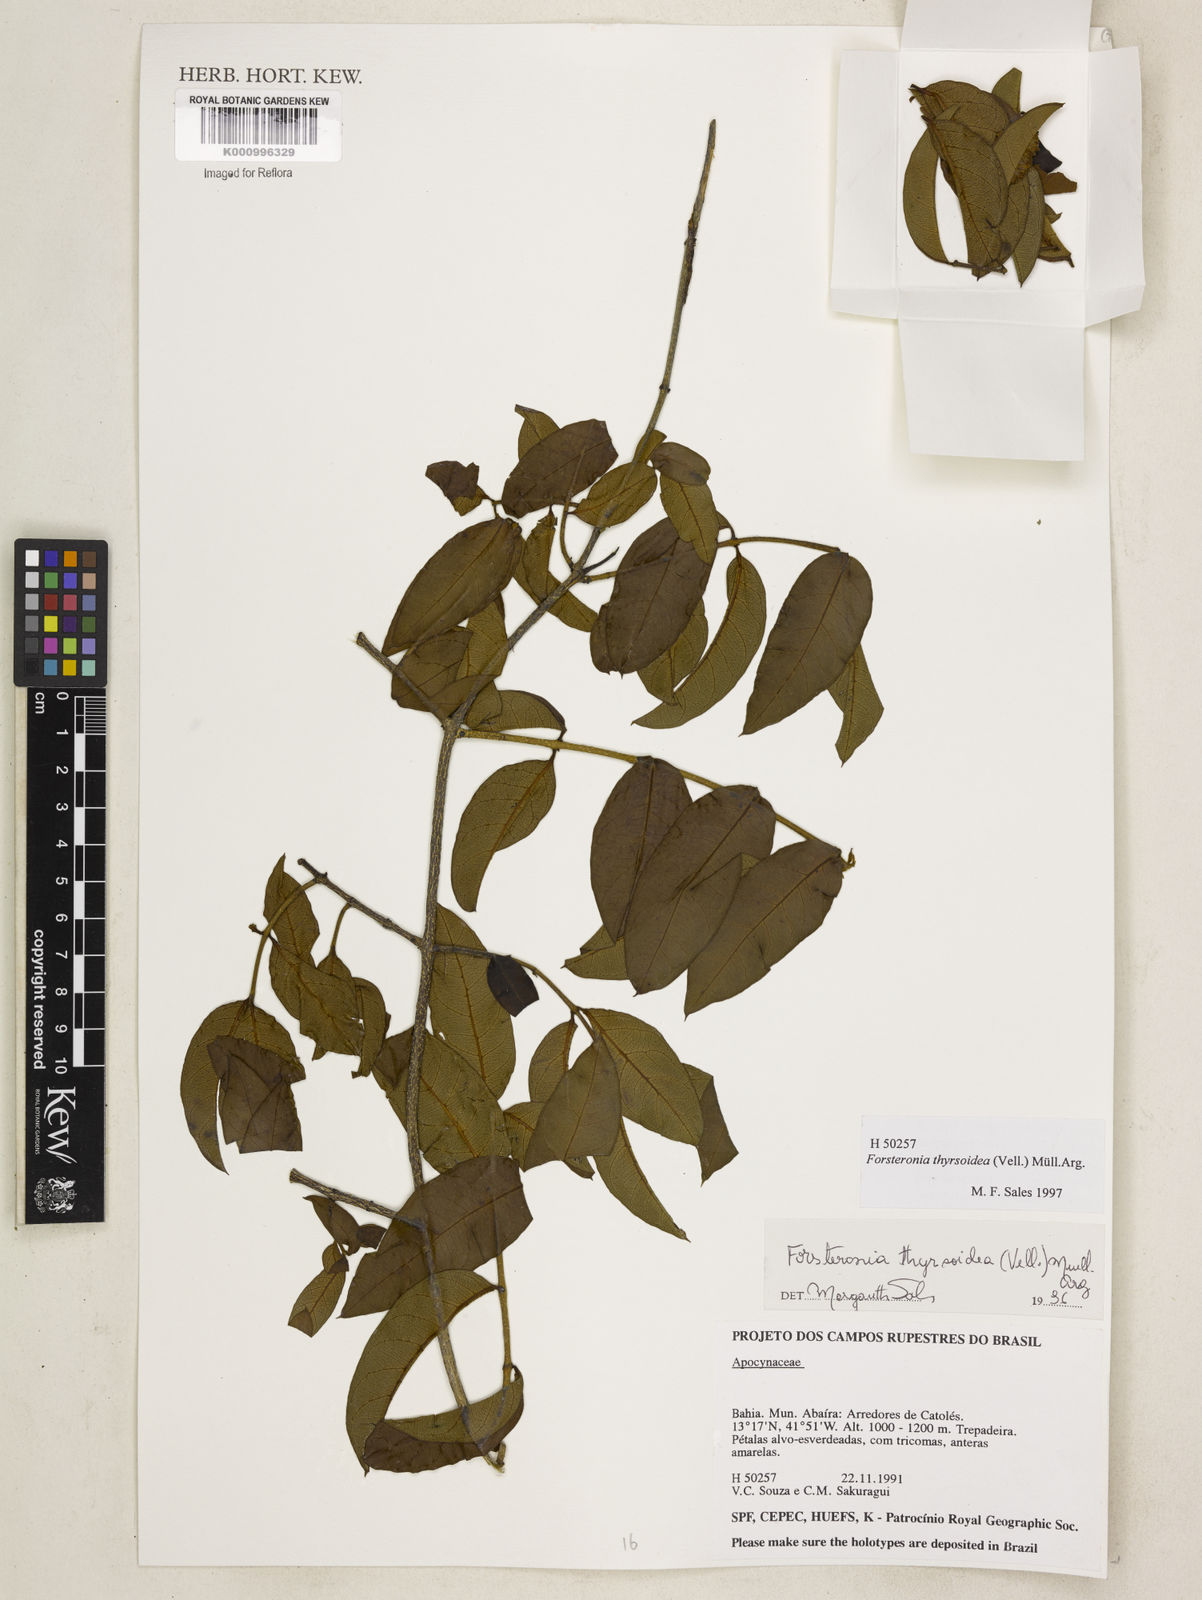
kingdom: Plantae
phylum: Tracheophyta
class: Magnoliopsida
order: Gentianales
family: Apocynaceae
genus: Forsteronia
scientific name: Forsteronia
